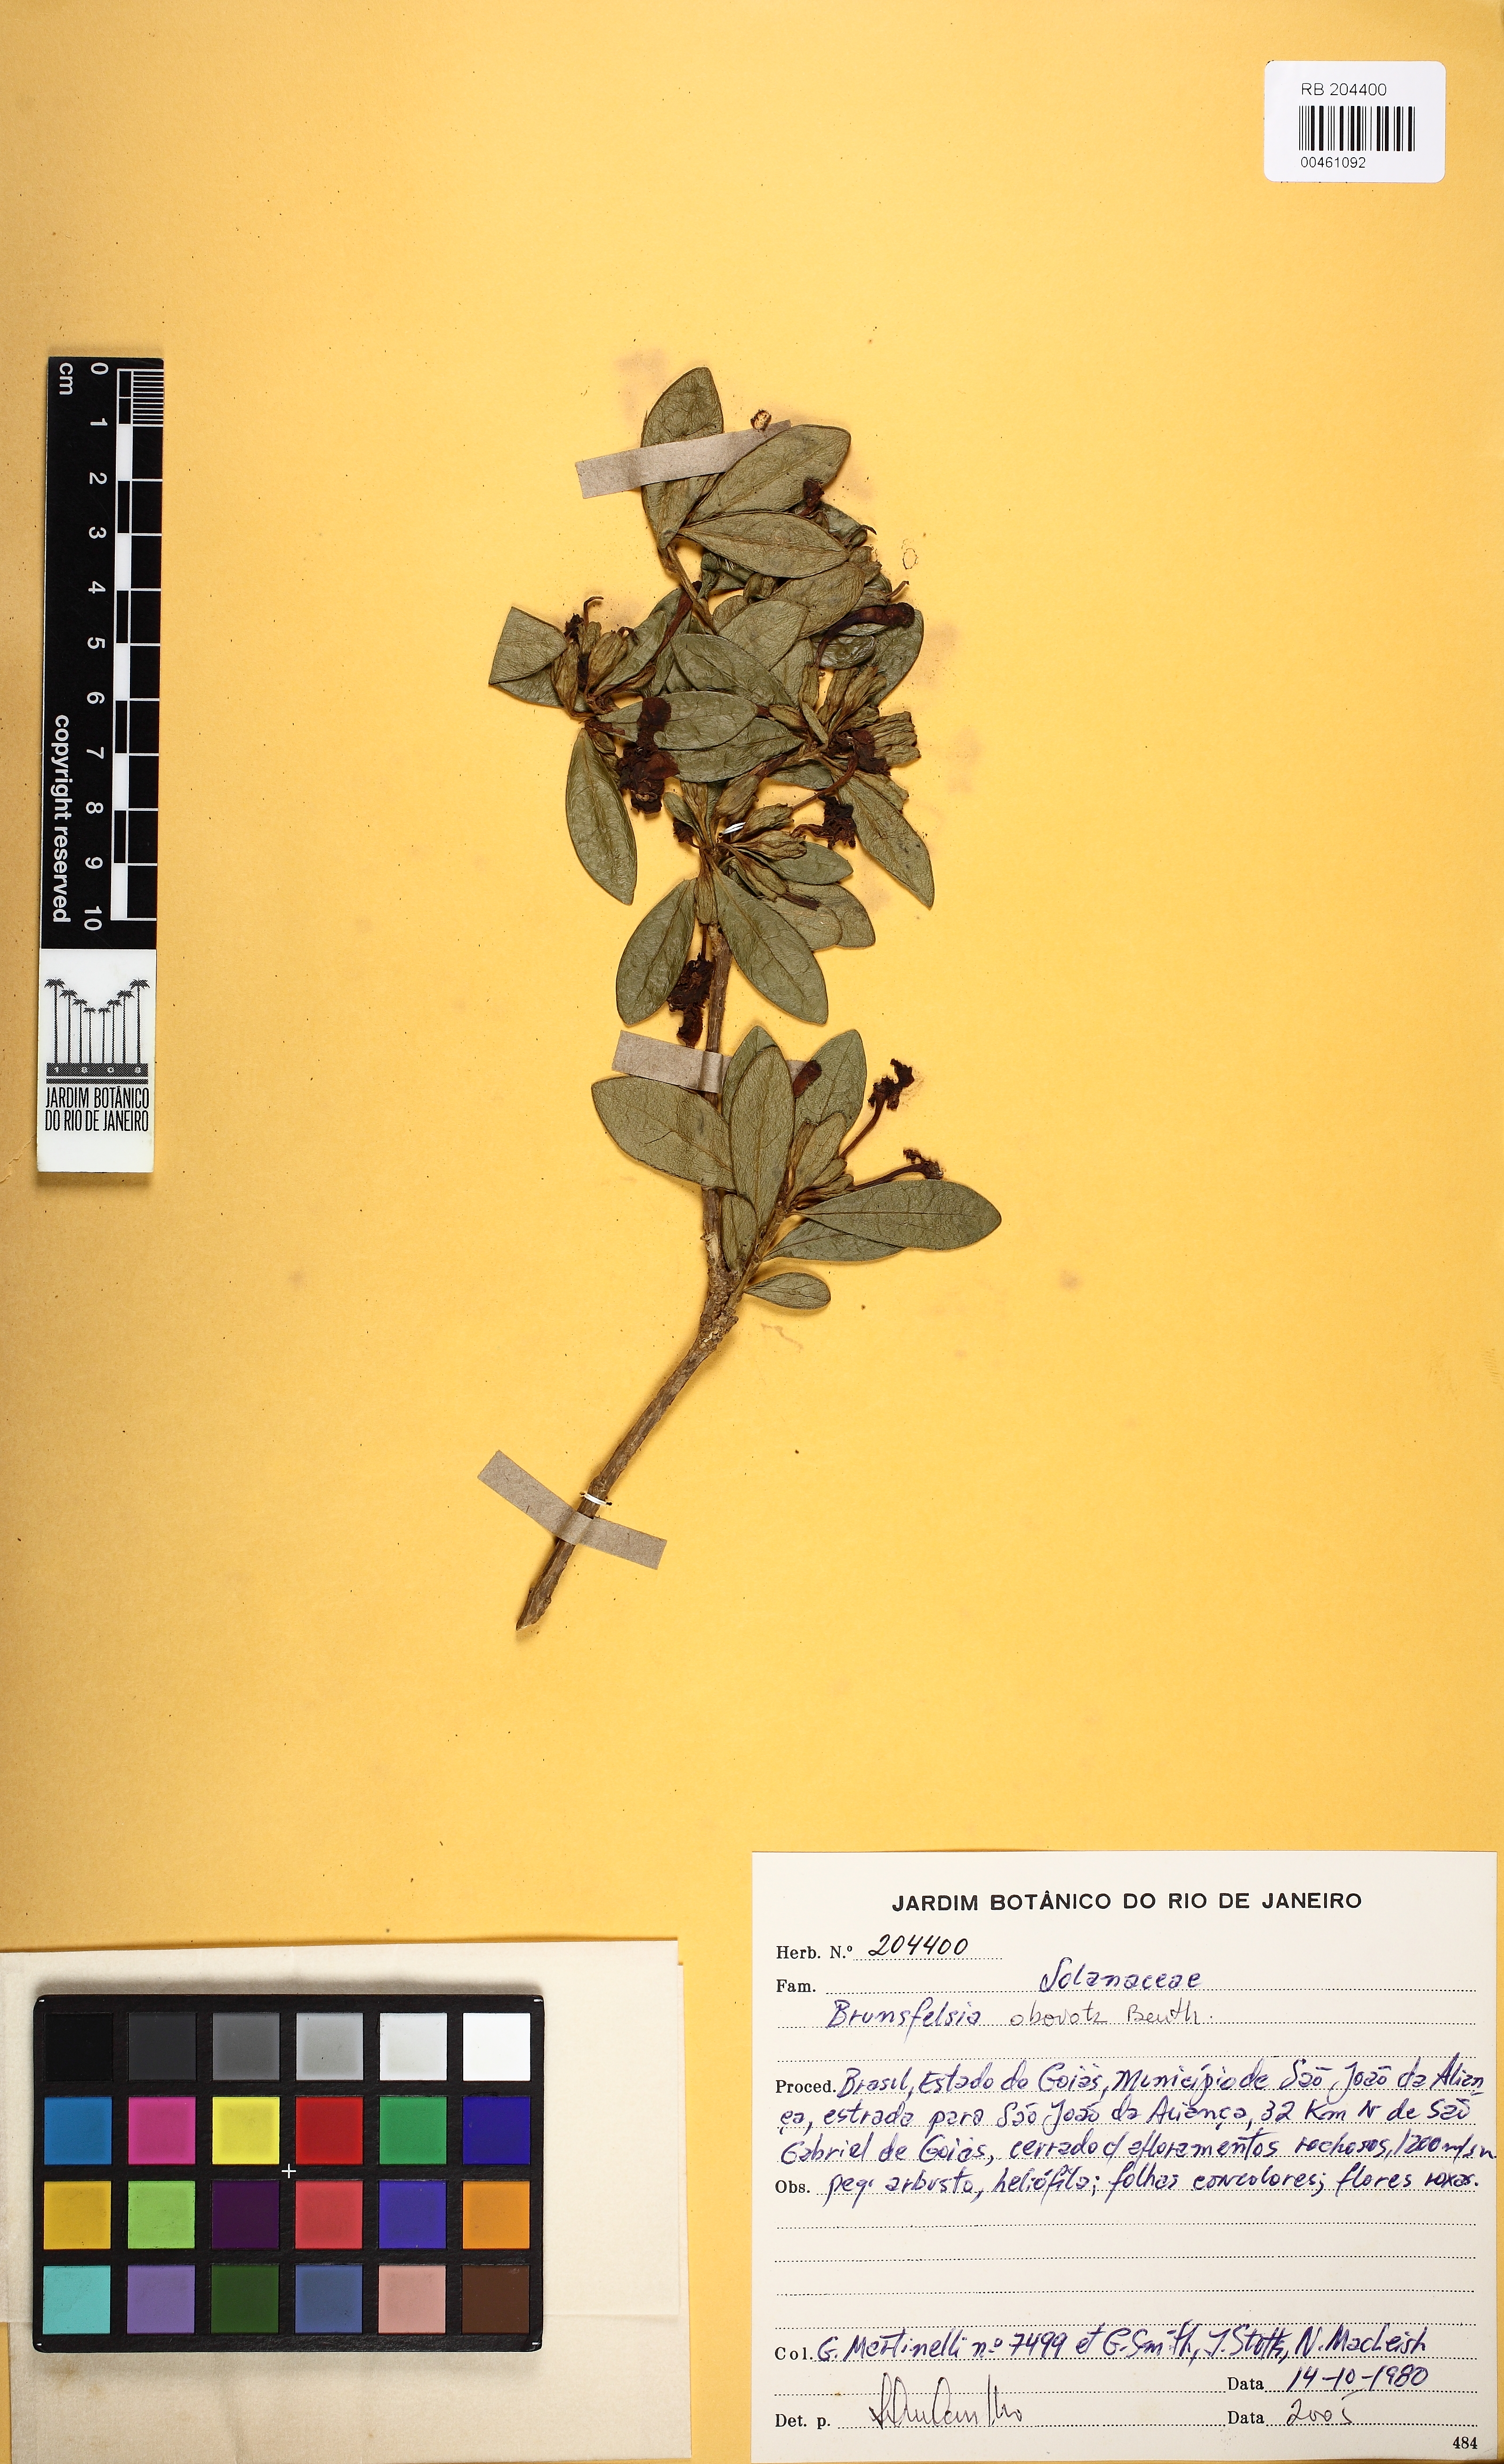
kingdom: Plantae
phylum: Tracheophyta
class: Magnoliopsida
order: Solanales
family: Solanaceae
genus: Brunfelsia
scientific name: Brunfelsia obovata
